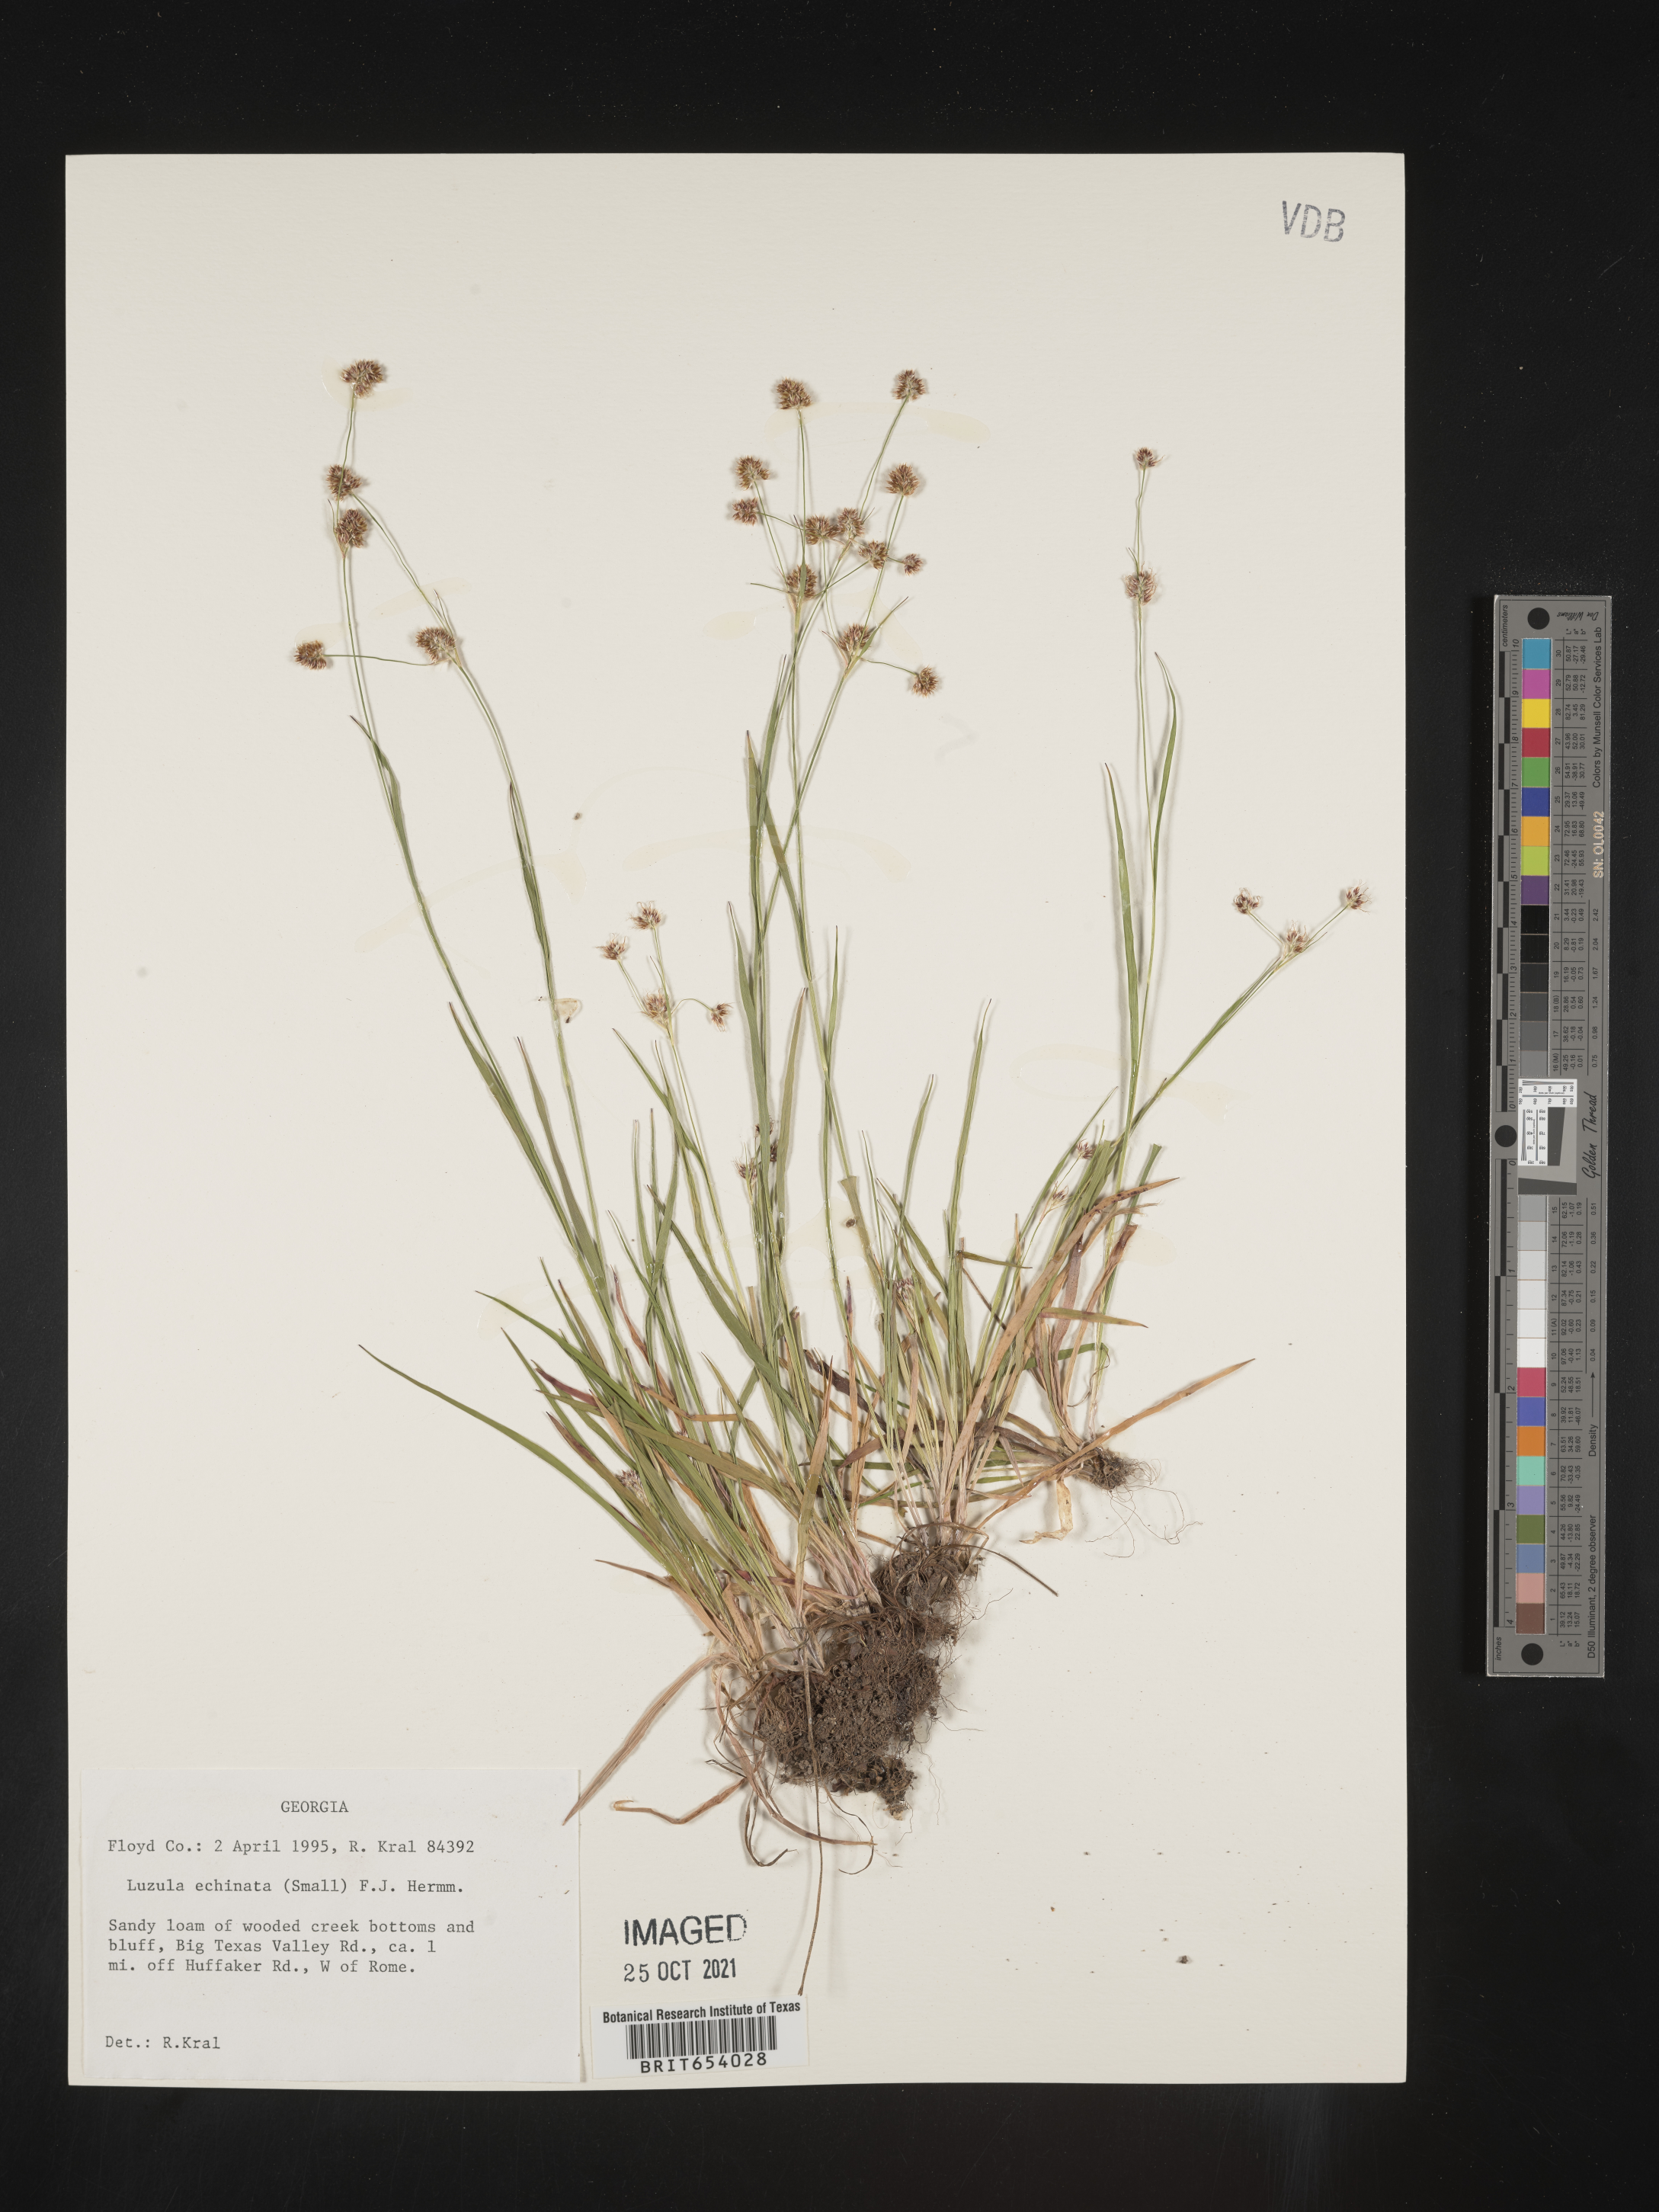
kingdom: Plantae
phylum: Tracheophyta
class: Liliopsida
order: Poales
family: Juncaceae
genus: Luzula
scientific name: Luzula echinata
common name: Hedgehog woodrush
